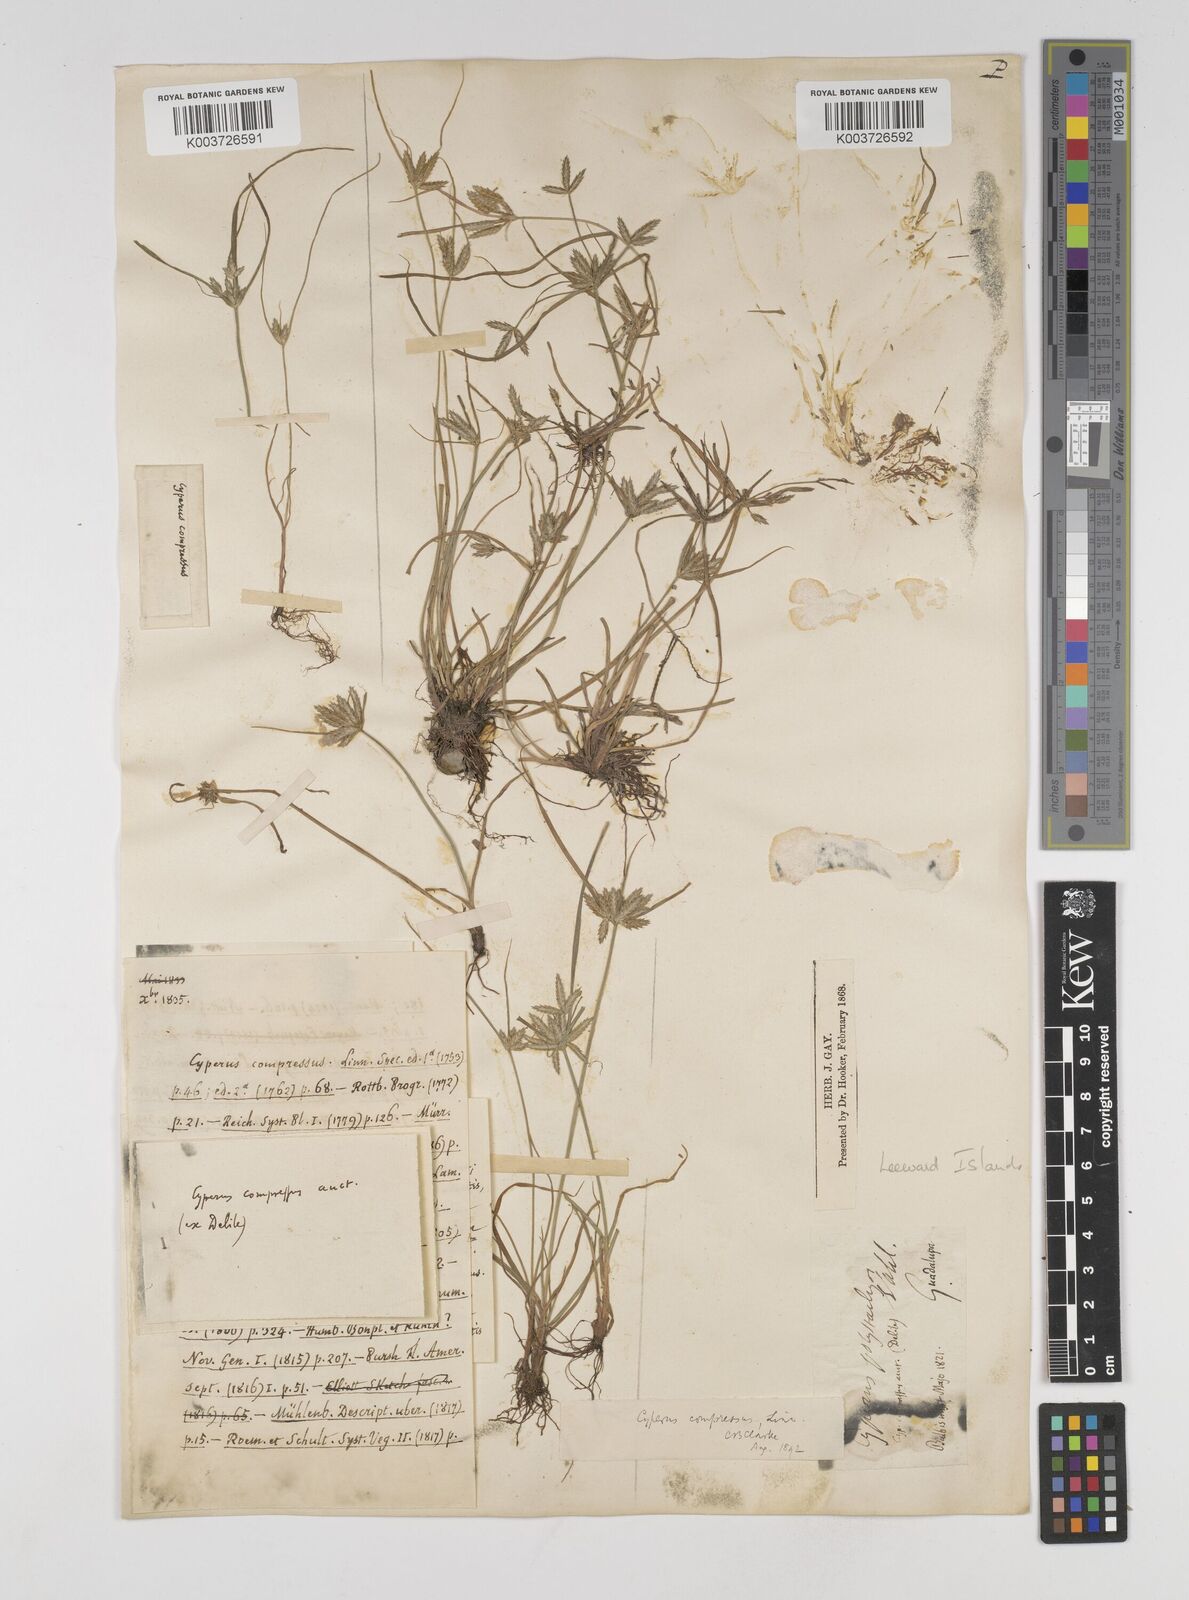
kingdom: Plantae
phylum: Tracheophyta
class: Liliopsida
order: Poales
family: Cyperaceae
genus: Cyperus
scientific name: Cyperus compressus
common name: Poorland flatsedge
